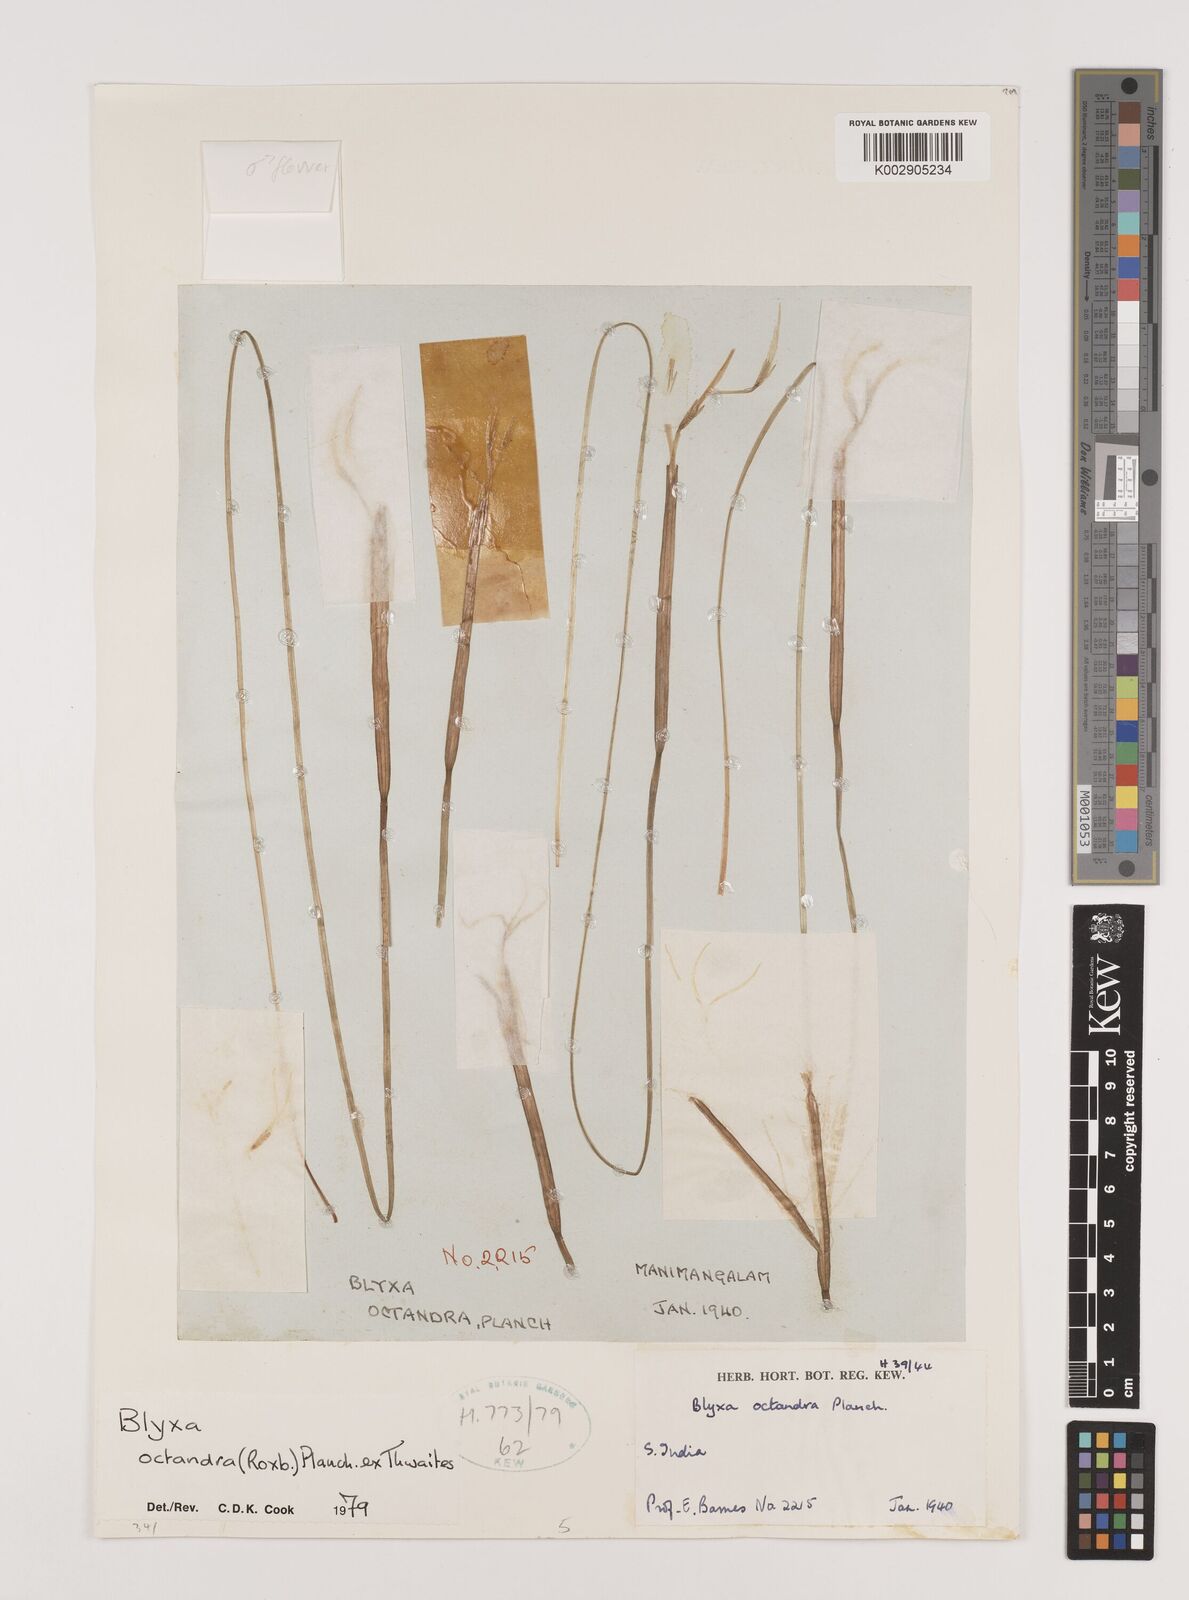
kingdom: Plantae
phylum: Tracheophyta
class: Liliopsida
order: Alismatales
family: Hydrocharitaceae
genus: Blyxa
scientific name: Blyxa octandra
